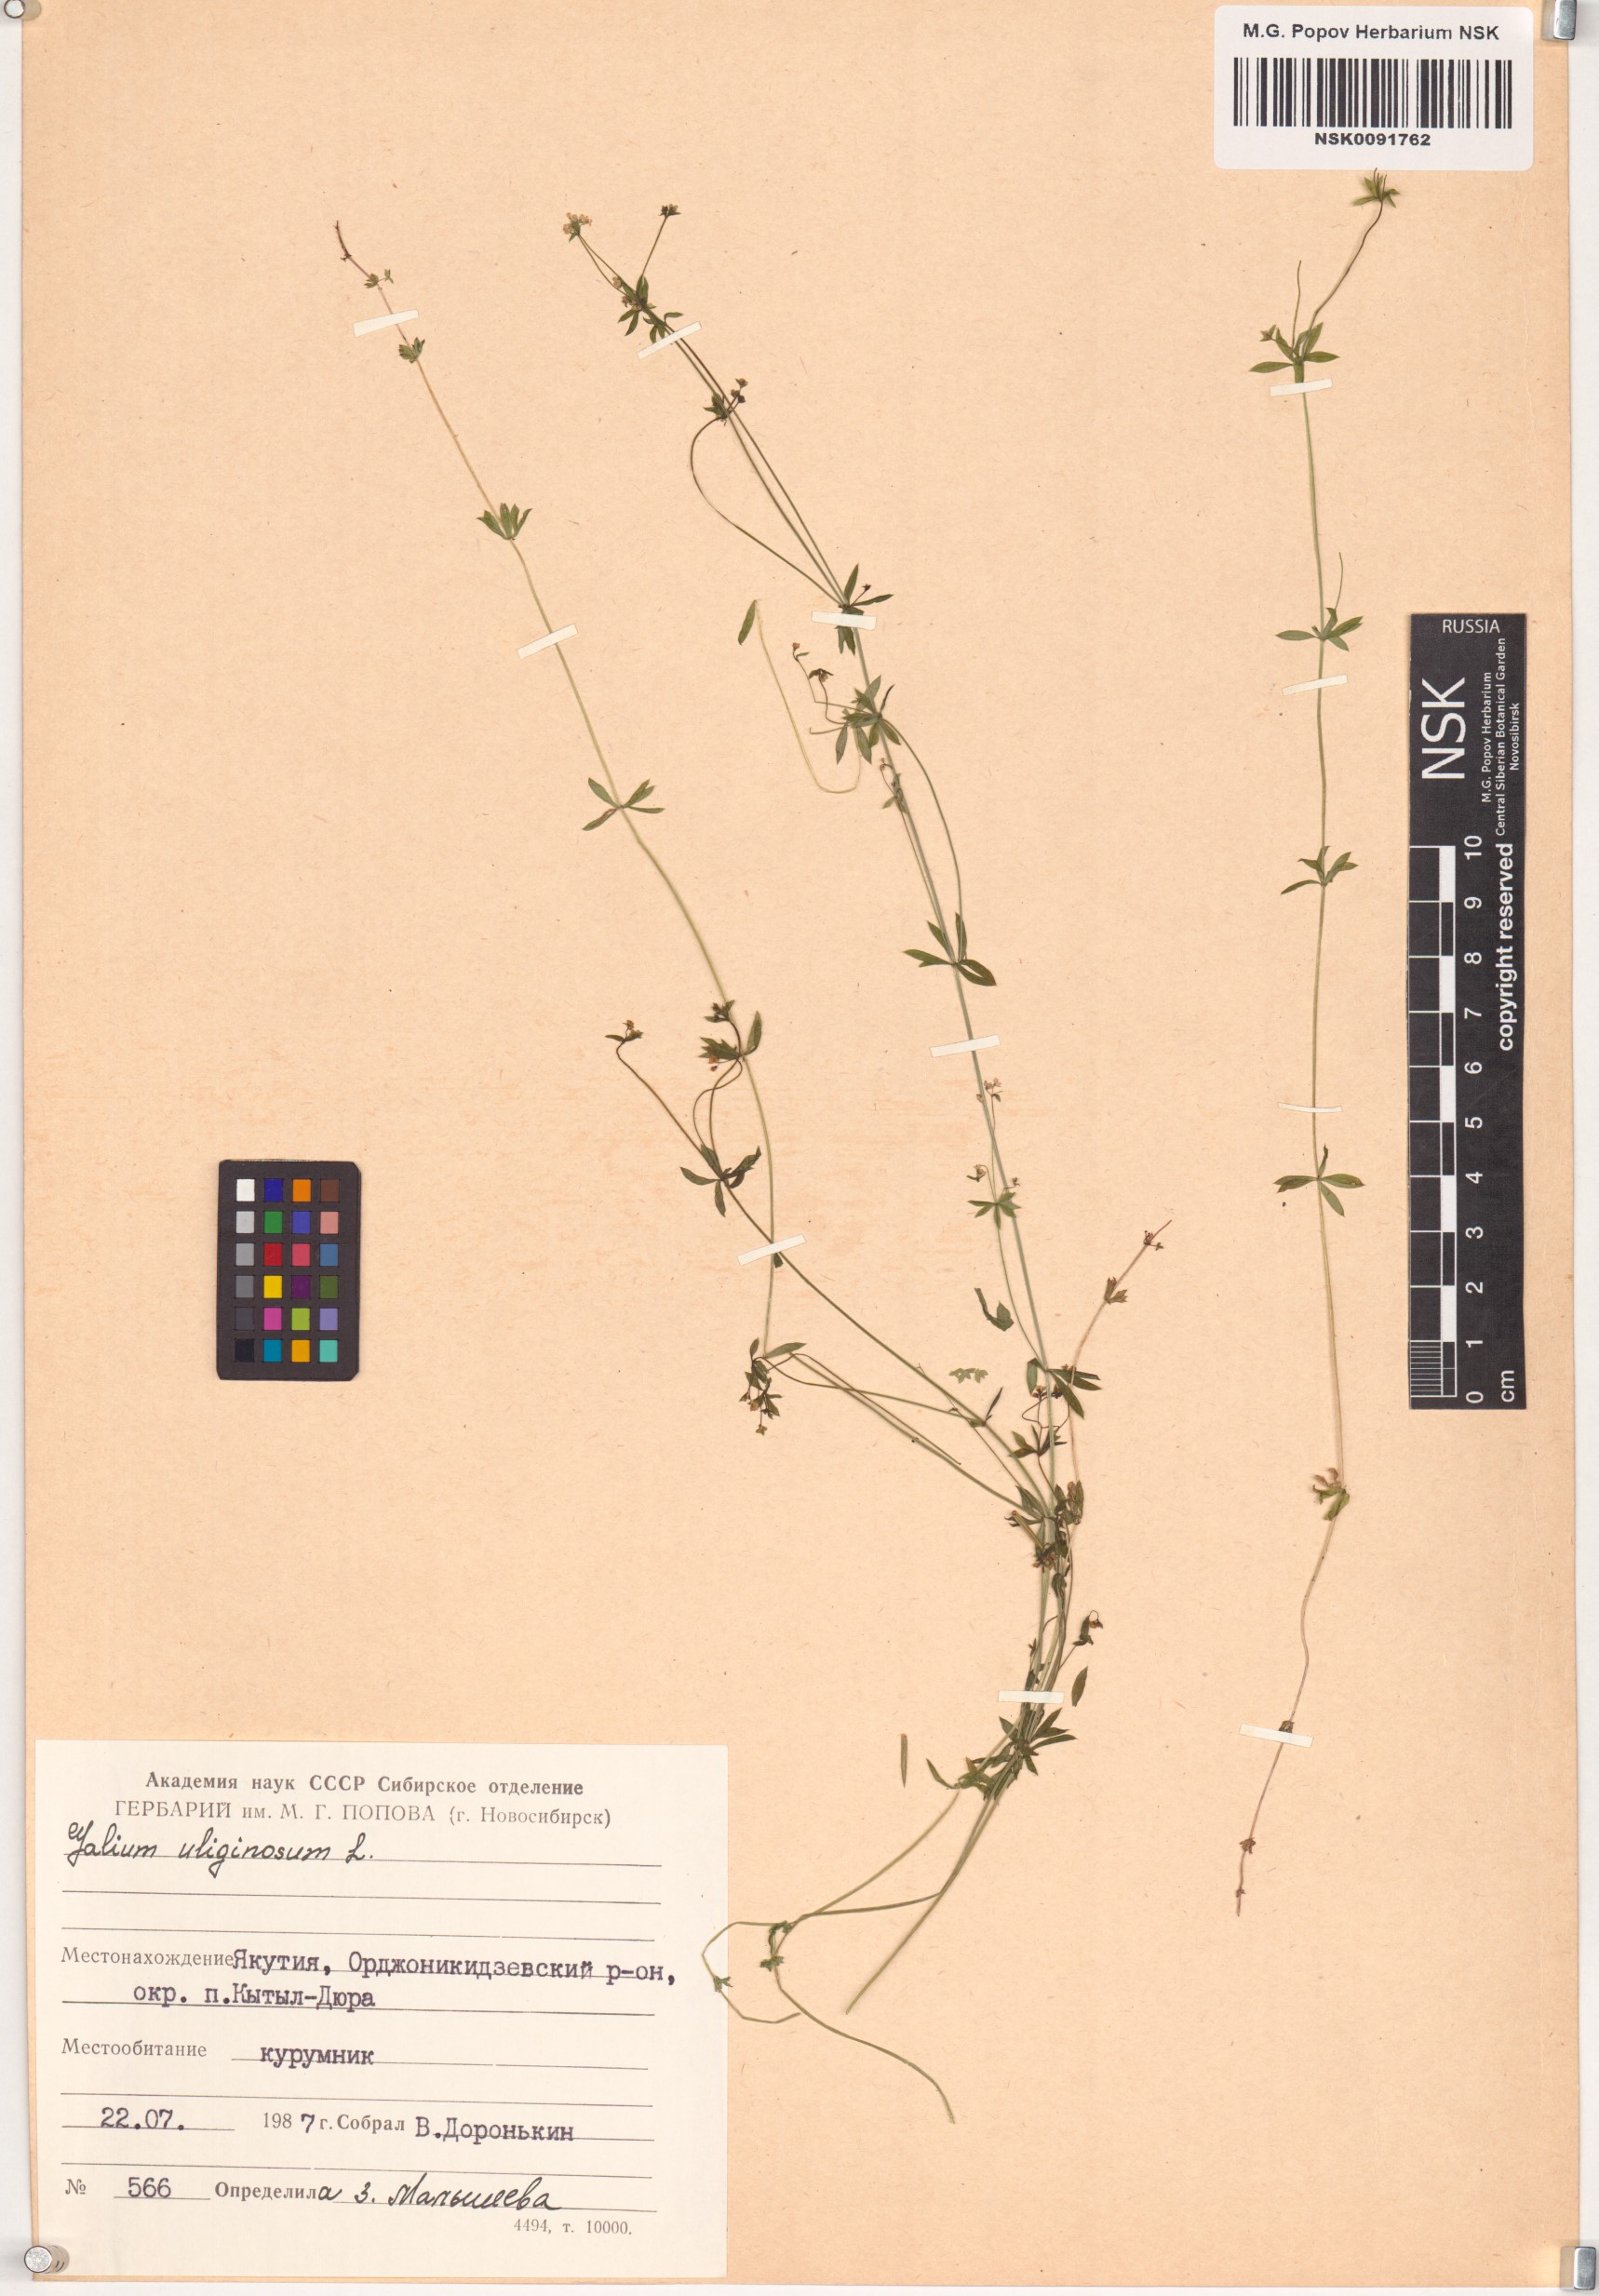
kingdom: Plantae
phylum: Tracheophyta
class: Magnoliopsida
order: Gentianales
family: Rubiaceae
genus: Galium
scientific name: Galium uliginosum
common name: Fen bedstraw
